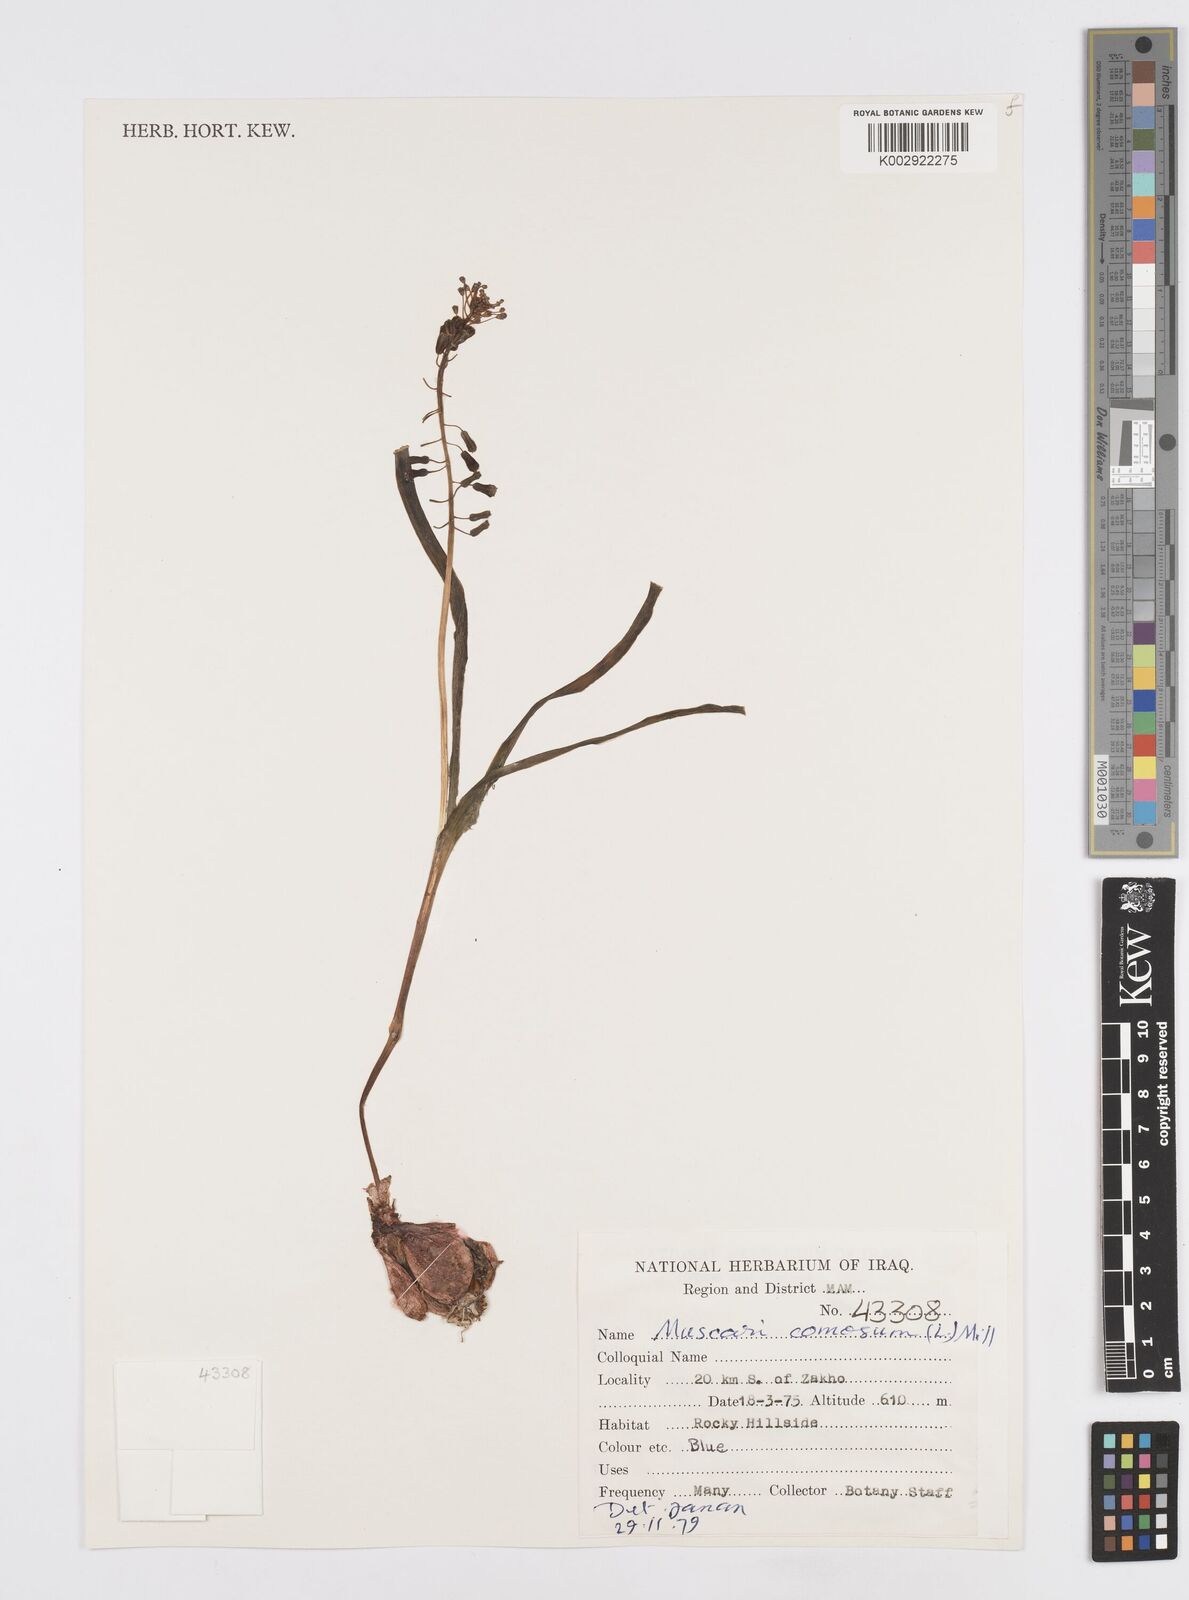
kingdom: Plantae
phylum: Tracheophyta
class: Liliopsida
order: Asparagales
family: Asparagaceae
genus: Muscari
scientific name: Muscari comosum
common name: Tassel hyacinth
